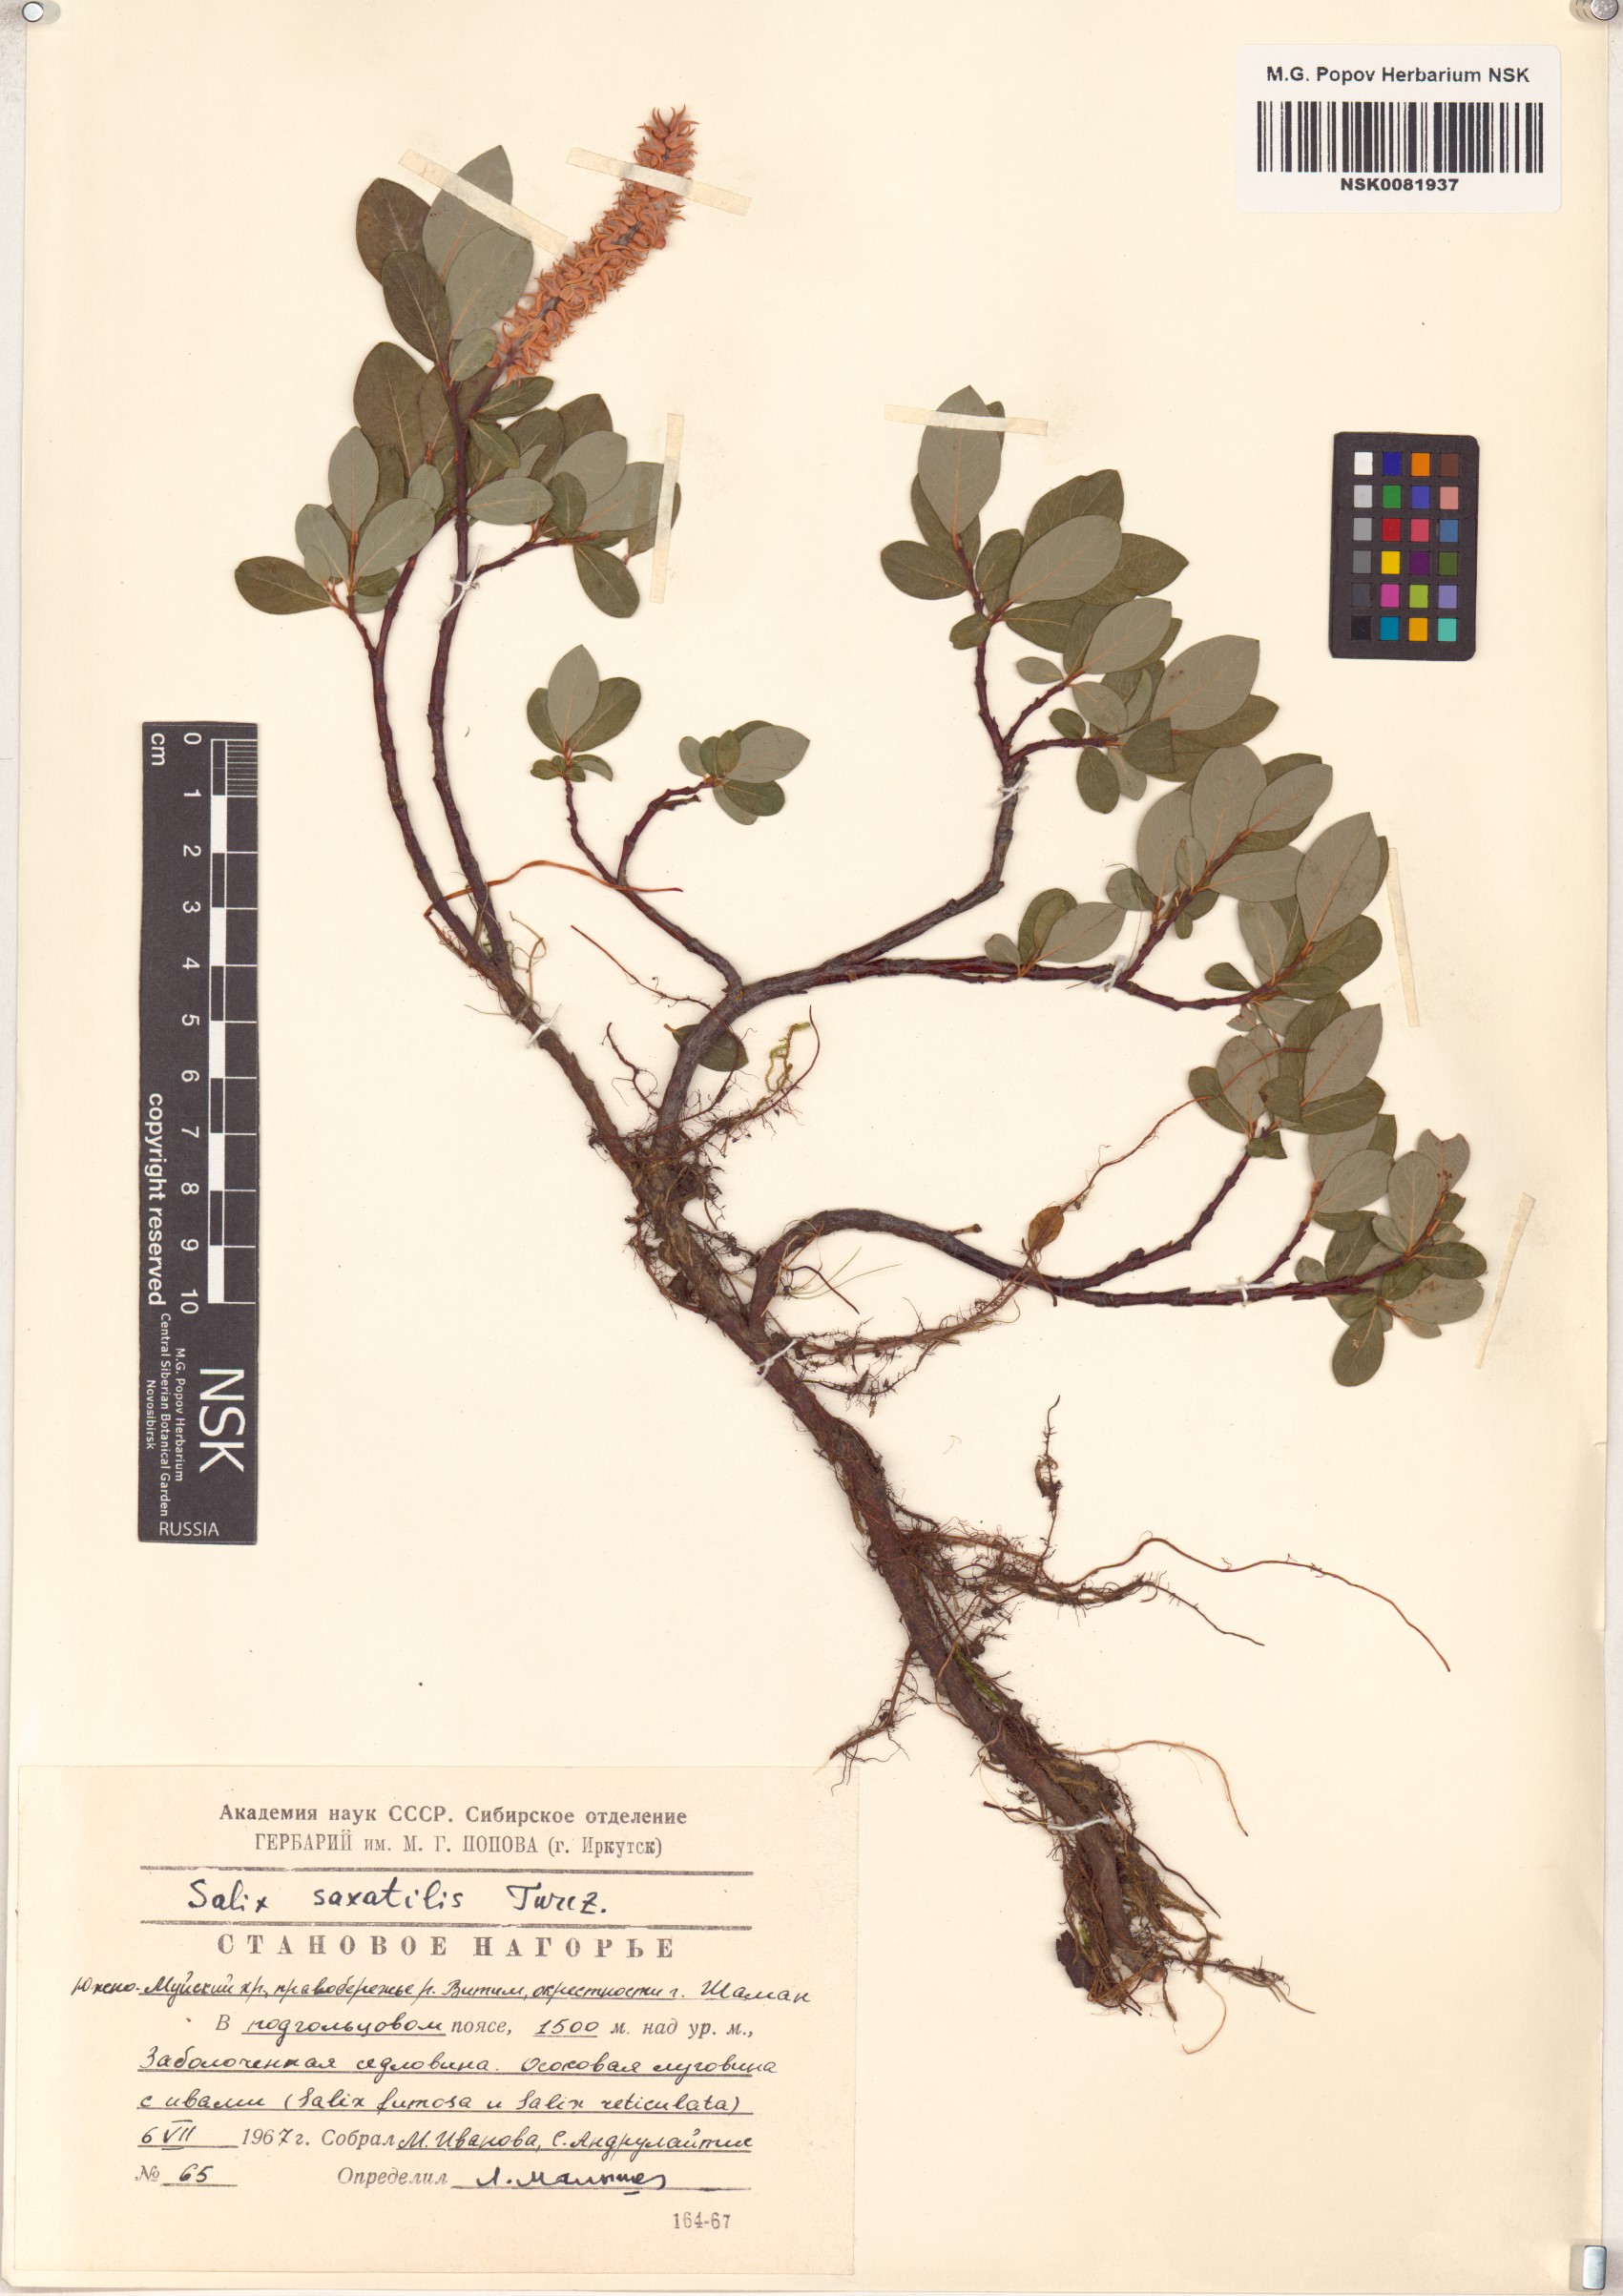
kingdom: Plantae
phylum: Tracheophyta
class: Magnoliopsida
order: Malpighiales
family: Salicaceae
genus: Salix
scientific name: Salix saxatilis
